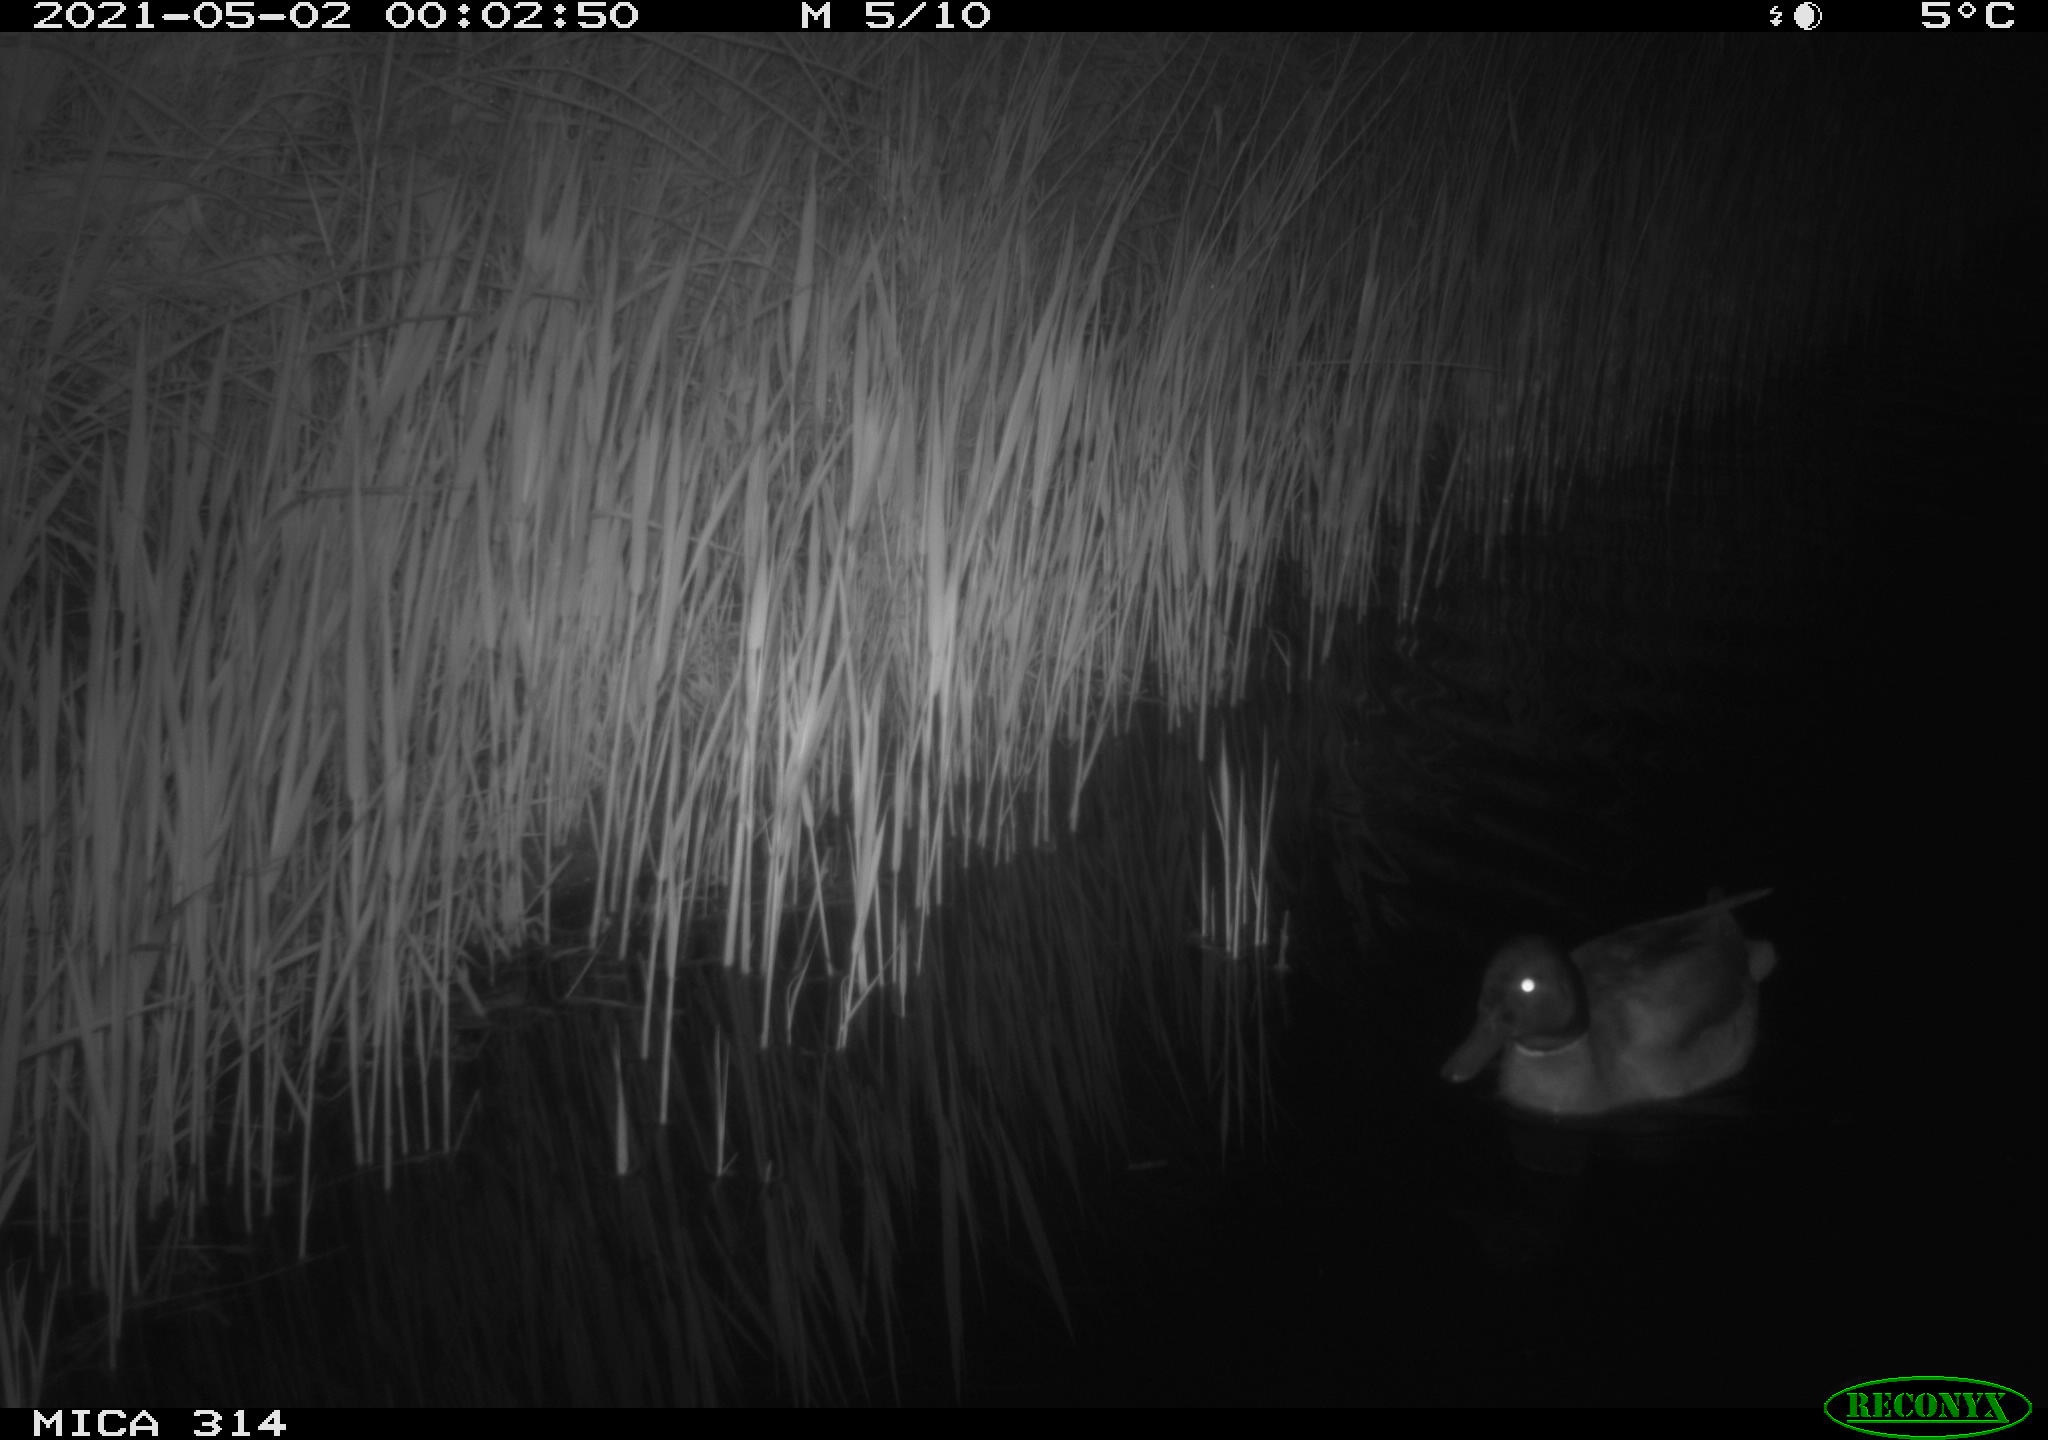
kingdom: Animalia
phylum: Chordata
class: Aves
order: Anseriformes
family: Anatidae
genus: Anas
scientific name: Anas platyrhynchos
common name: Mallard
